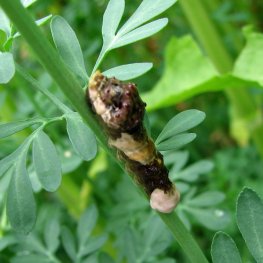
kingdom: Animalia
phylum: Arthropoda
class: Insecta
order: Lepidoptera
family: Papilionidae
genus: Papilio
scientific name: Papilio cresphontes
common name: Eastern Giant Swallowtail
